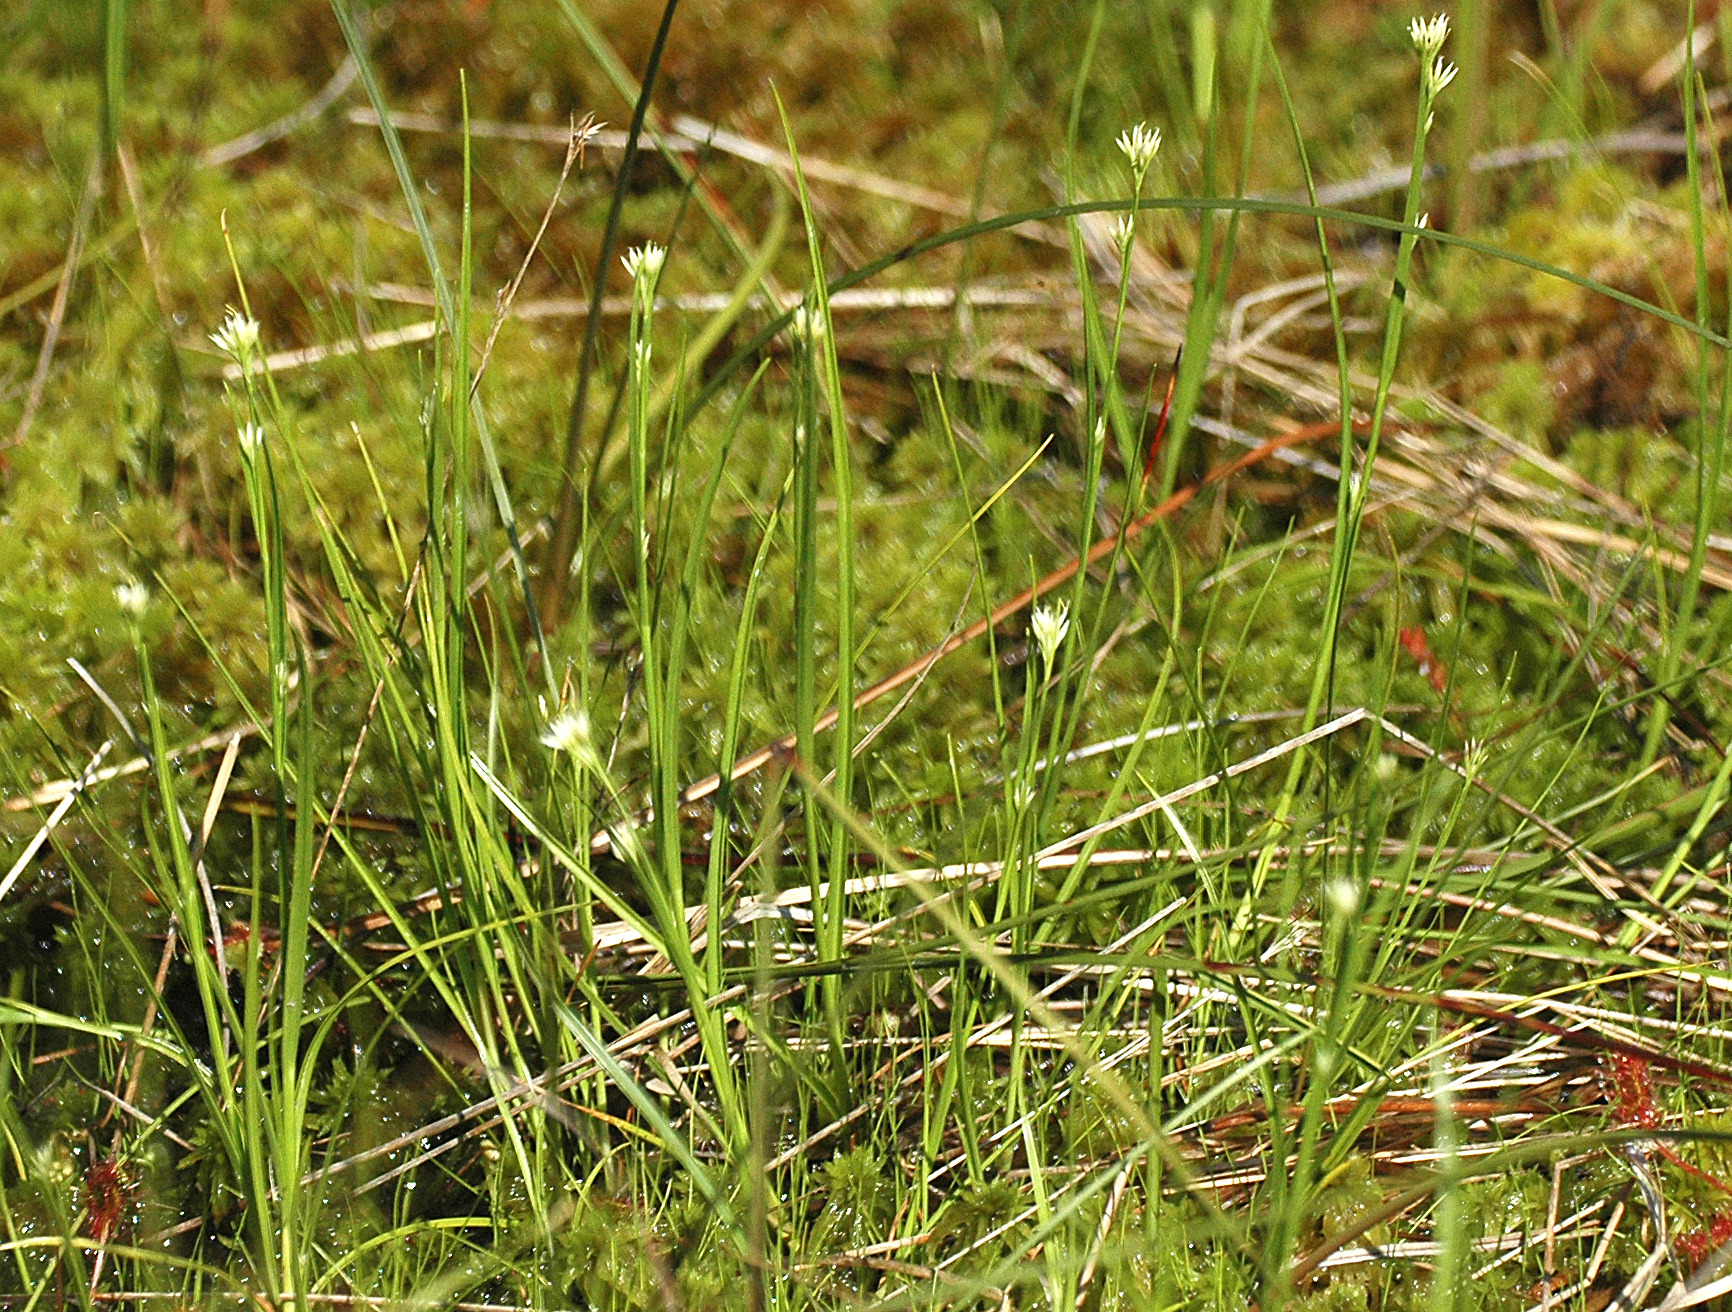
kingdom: Plantae
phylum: Tracheophyta
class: Liliopsida
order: Poales
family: Cyperaceae
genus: Rhynchospora
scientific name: Rhynchospora alba
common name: Hvid næbfrø
